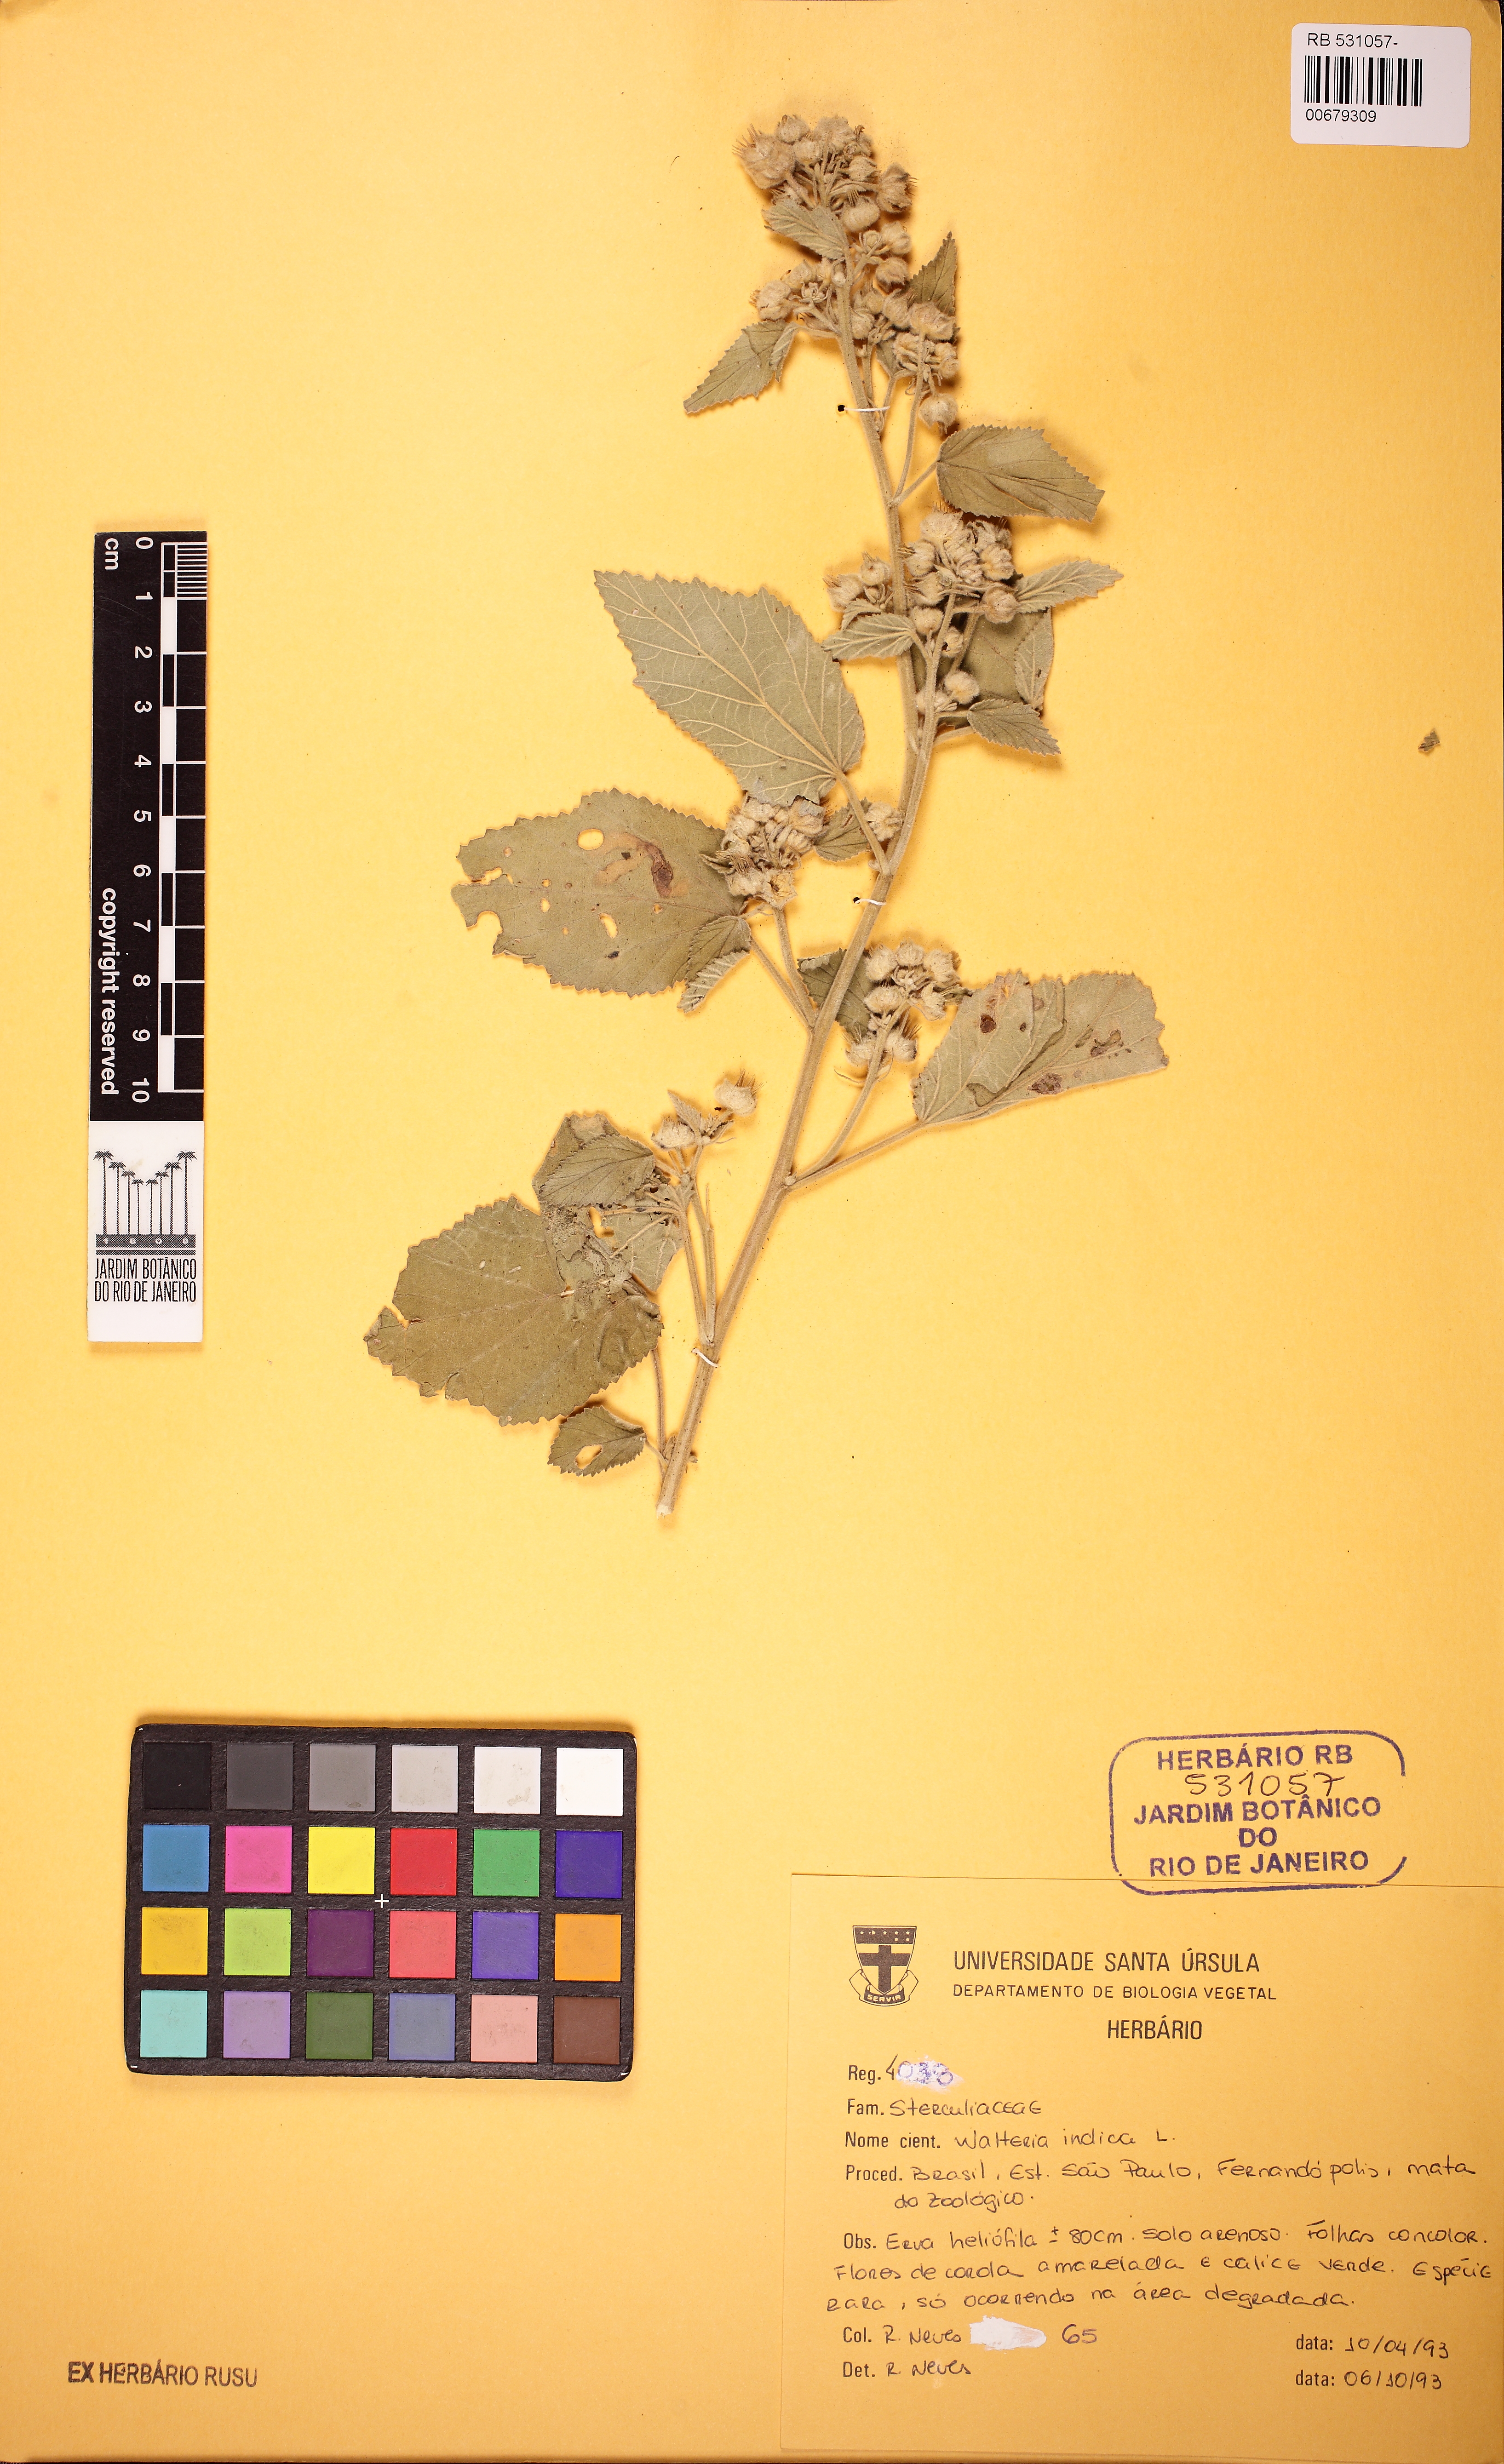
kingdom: Plantae
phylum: Tracheophyta
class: Magnoliopsida
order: Malvales
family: Malvaceae
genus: Sida
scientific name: Sida cordifolia
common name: Ilima
